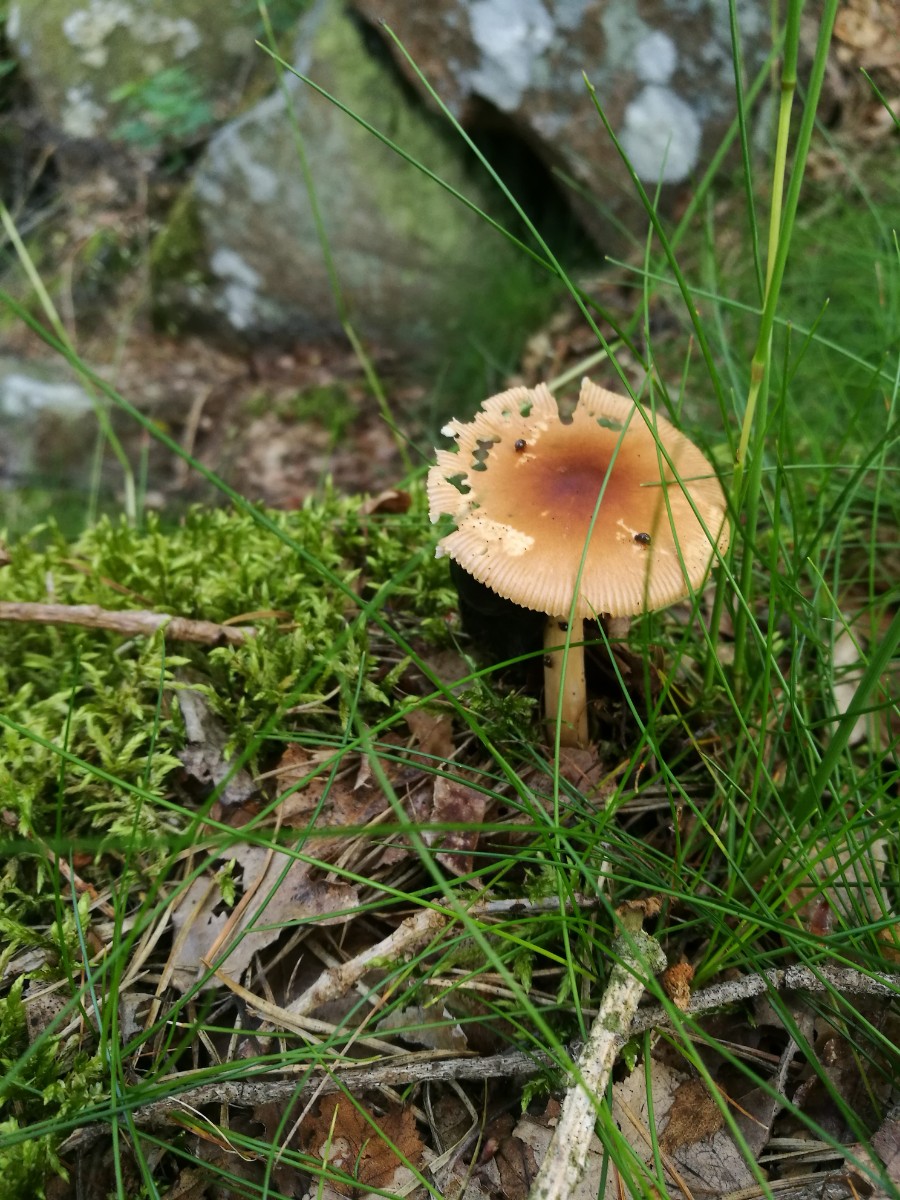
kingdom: Fungi
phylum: Basidiomycota
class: Agaricomycetes
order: Agaricales
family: Amanitaceae
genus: Amanita
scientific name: Amanita fulva
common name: brun kam-fluesvamp
